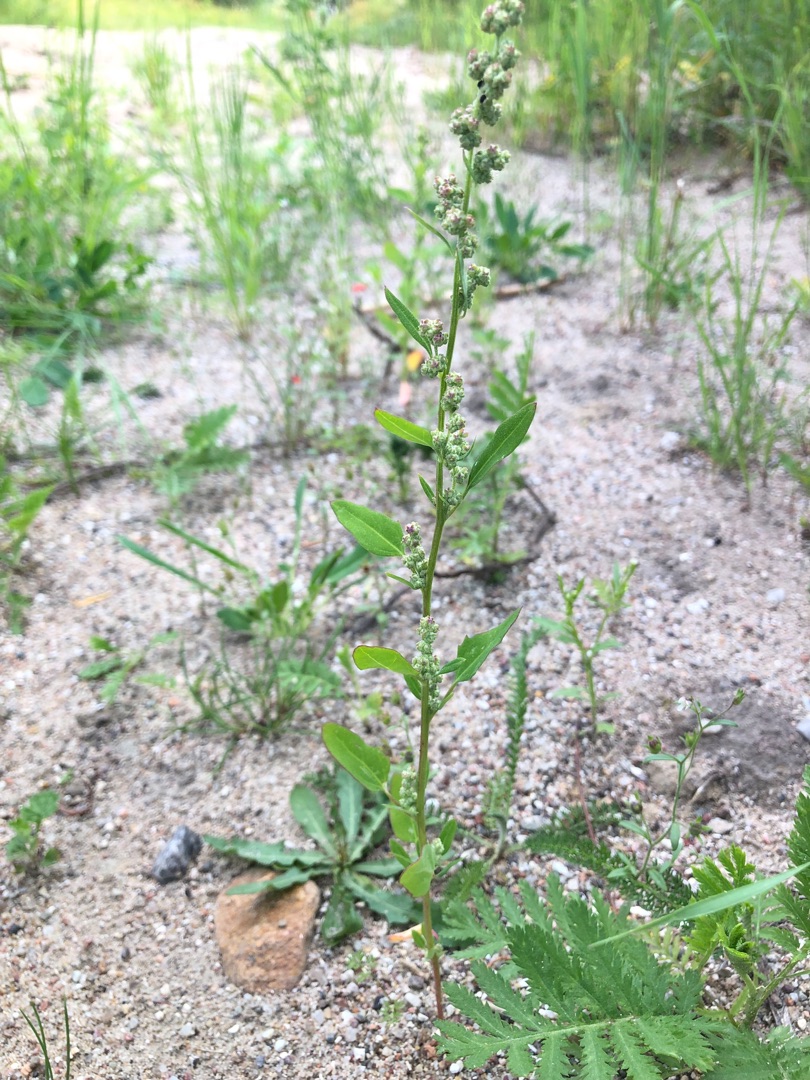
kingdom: Plantae
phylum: Tracheophyta
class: Magnoliopsida
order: Caryophyllales
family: Amaranthaceae
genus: Chenopodium
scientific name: Chenopodium album
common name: Hvidmelet gåsefod
